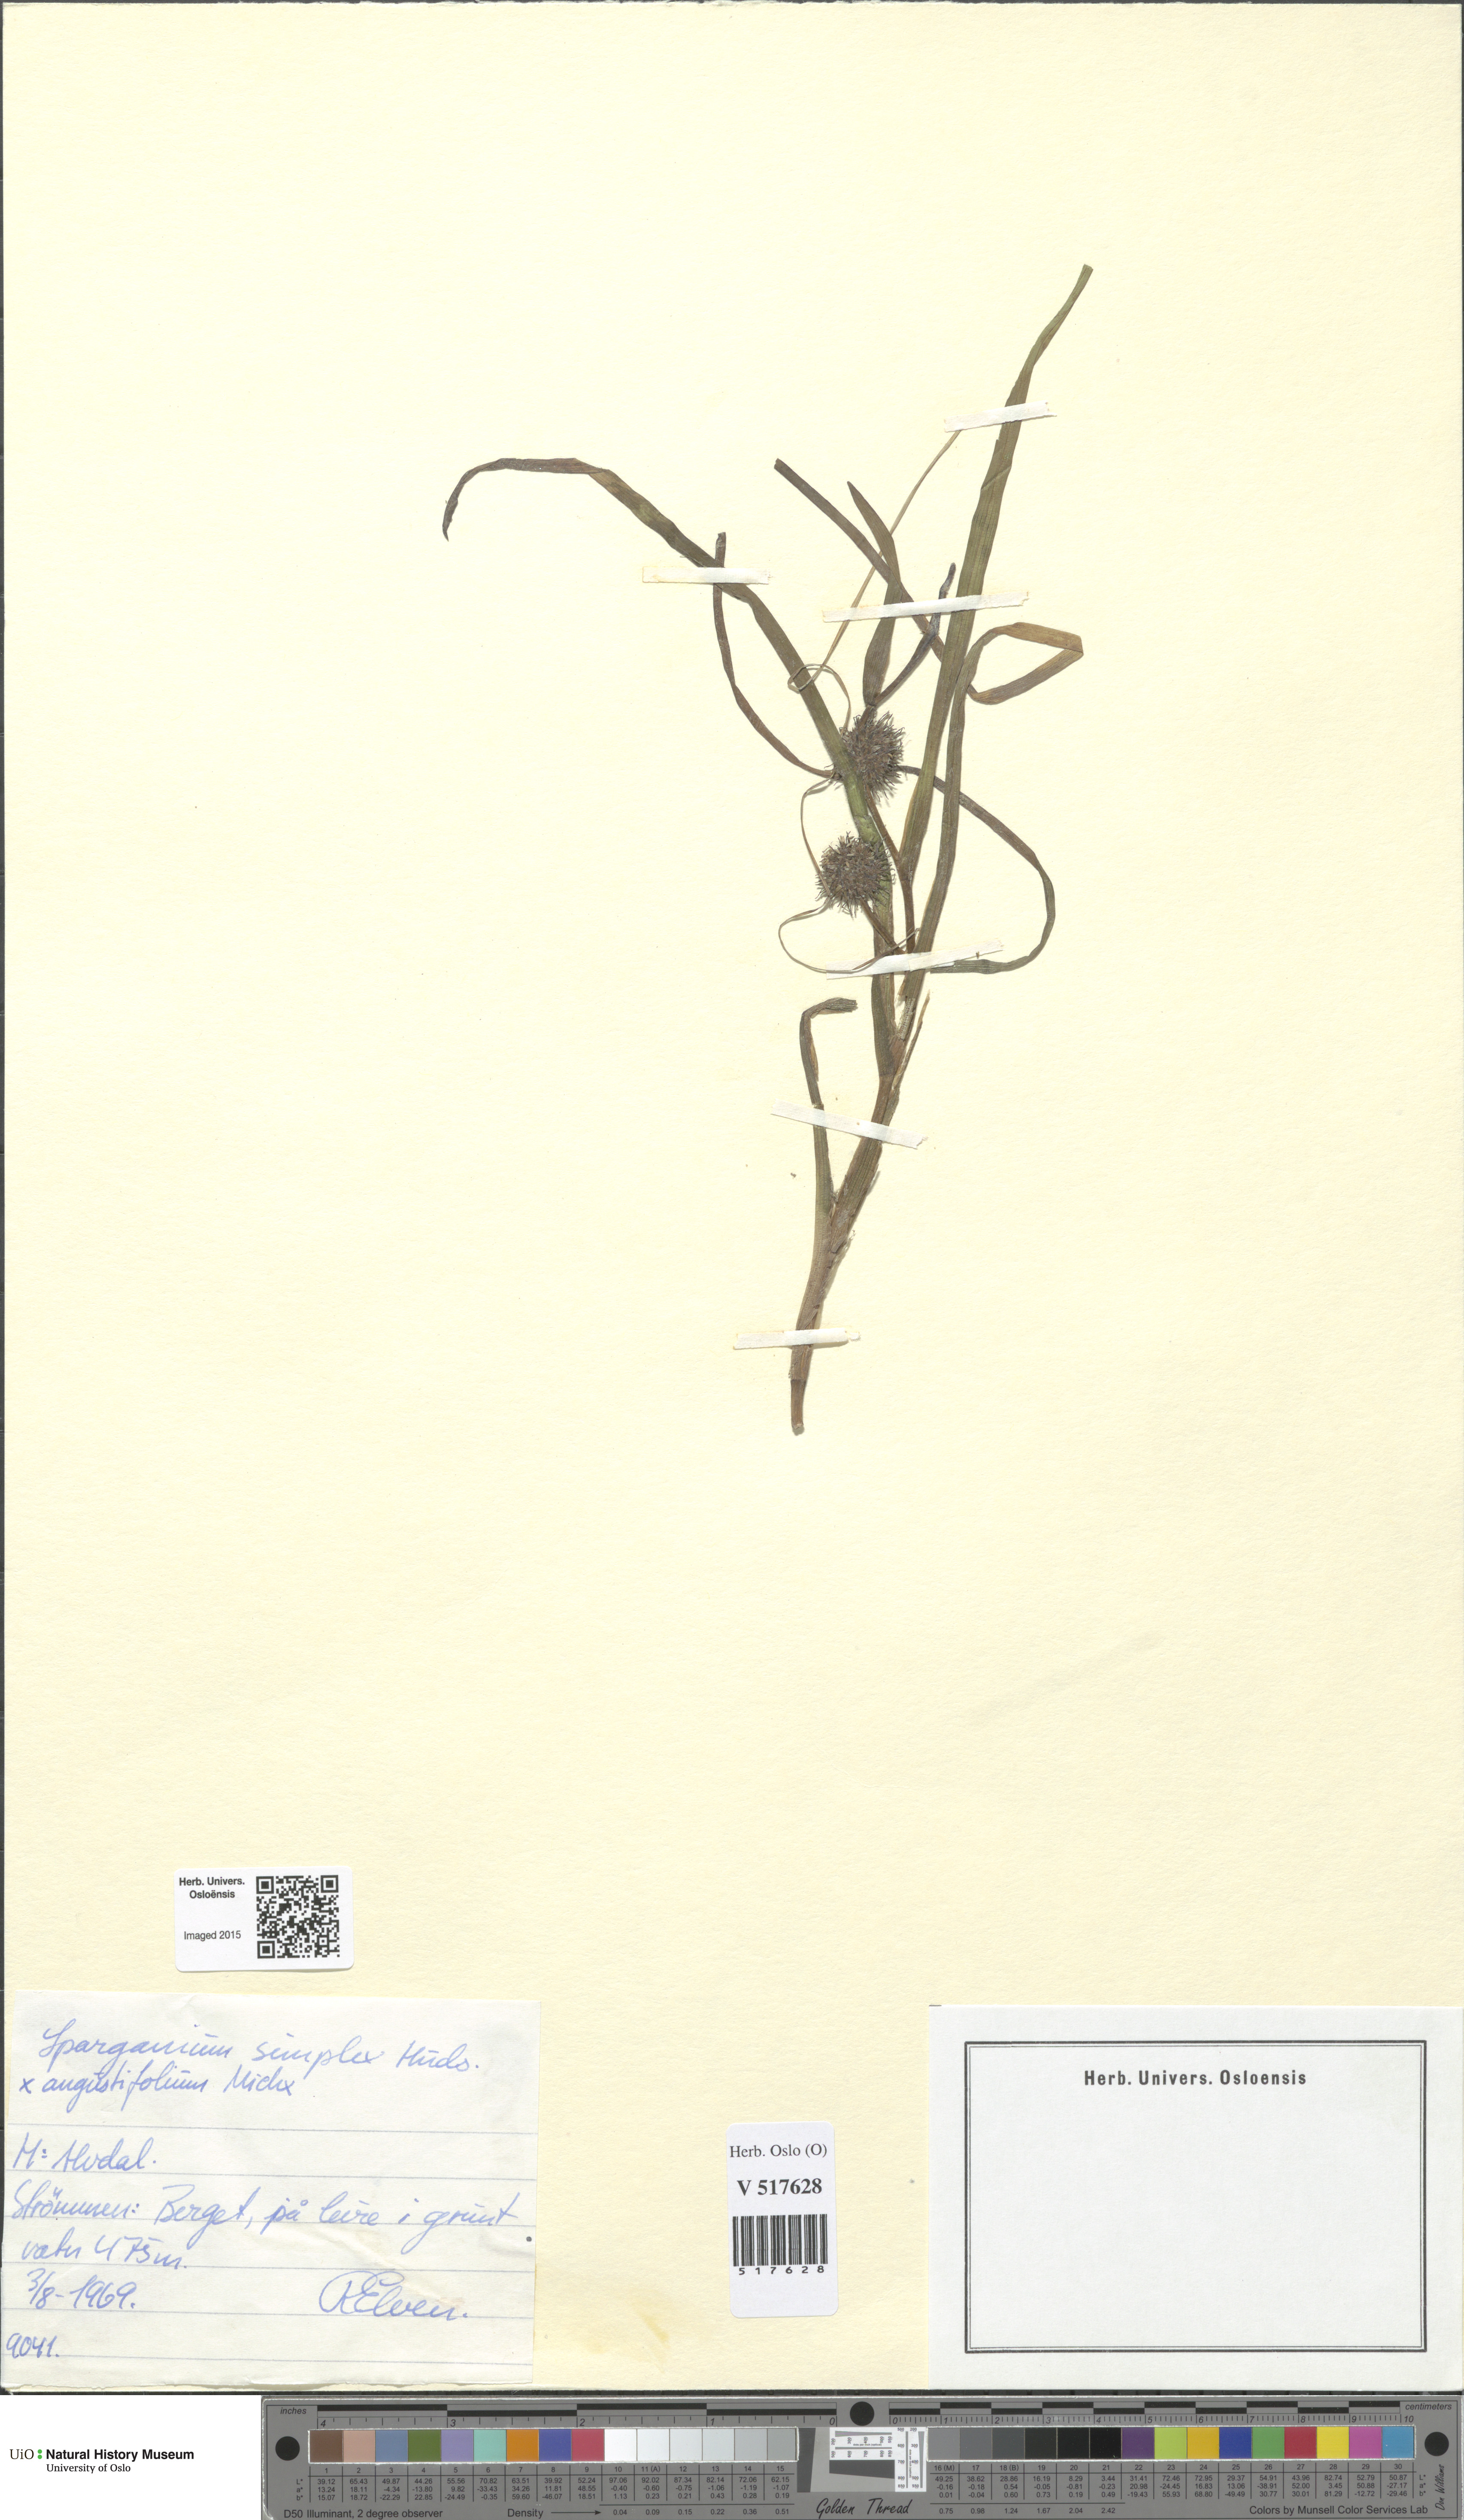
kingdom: Plantae
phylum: Tracheophyta
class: Liliopsida
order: Poales
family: Typhaceae
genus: Sparganium
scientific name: Sparganium
